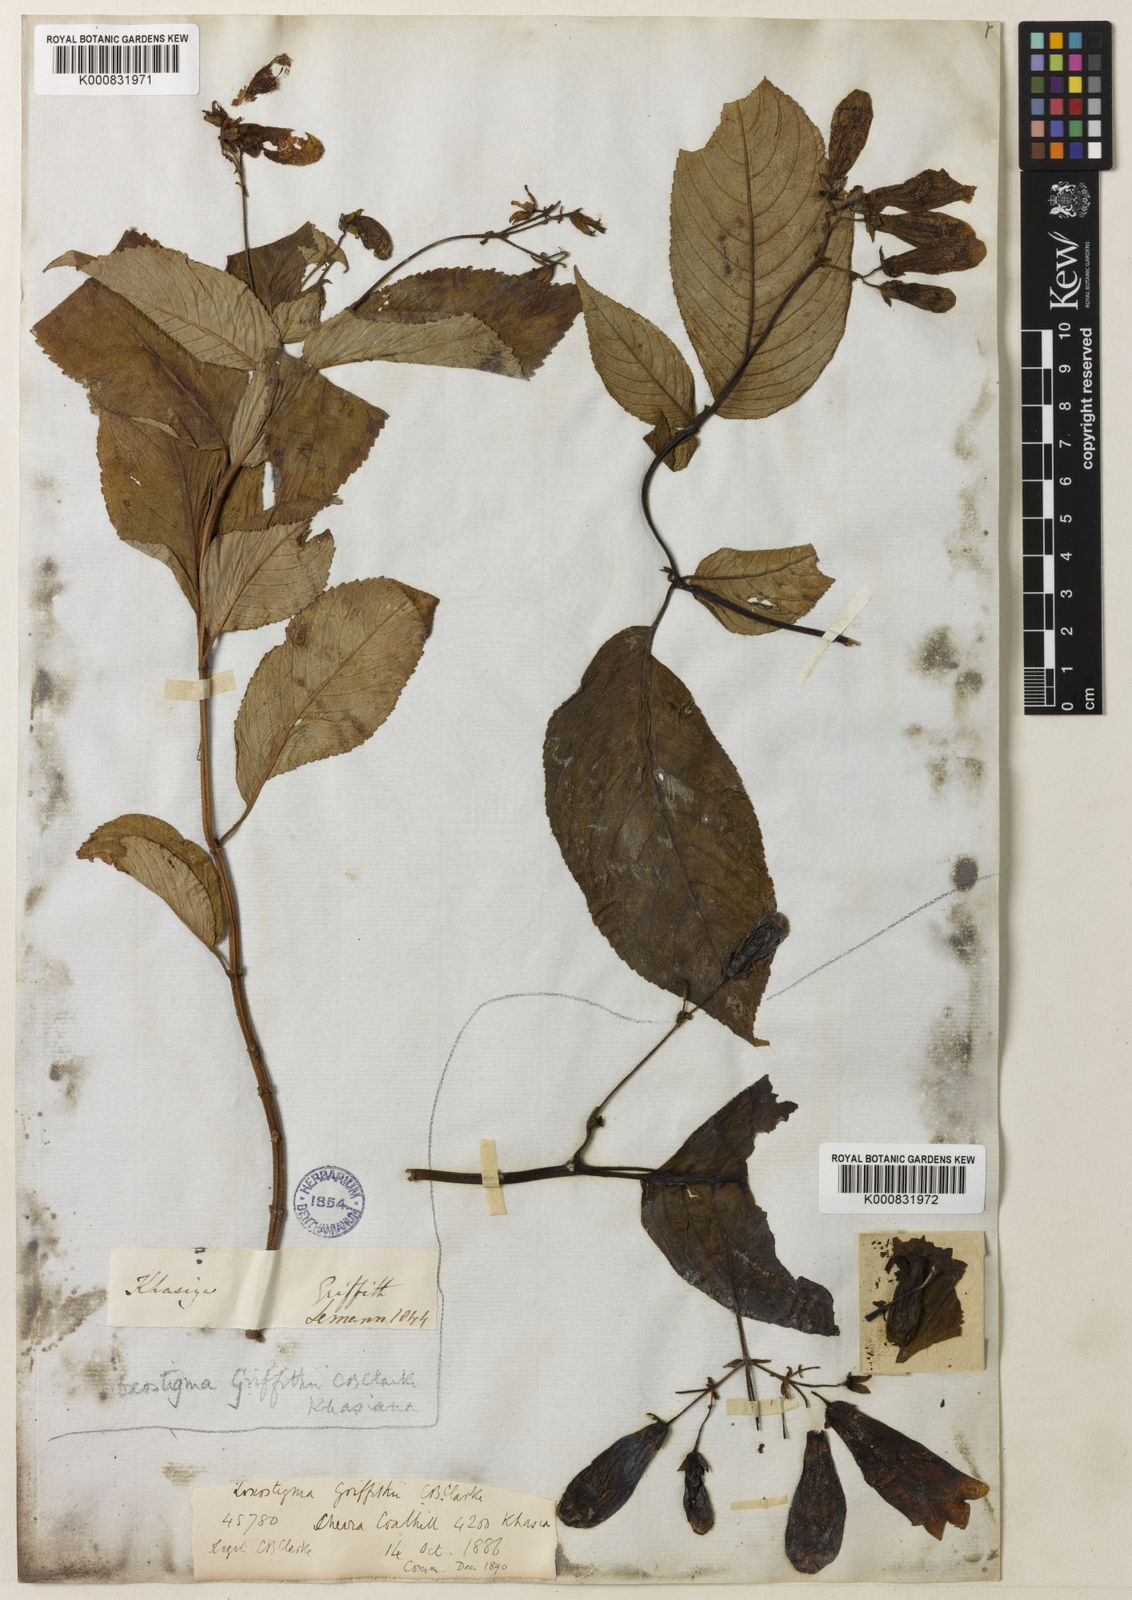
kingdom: Plantae
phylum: Tracheophyta
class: Magnoliopsida
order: Lamiales
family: Gesneriaceae
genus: Loxostigma
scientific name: Loxostigma griffithii
